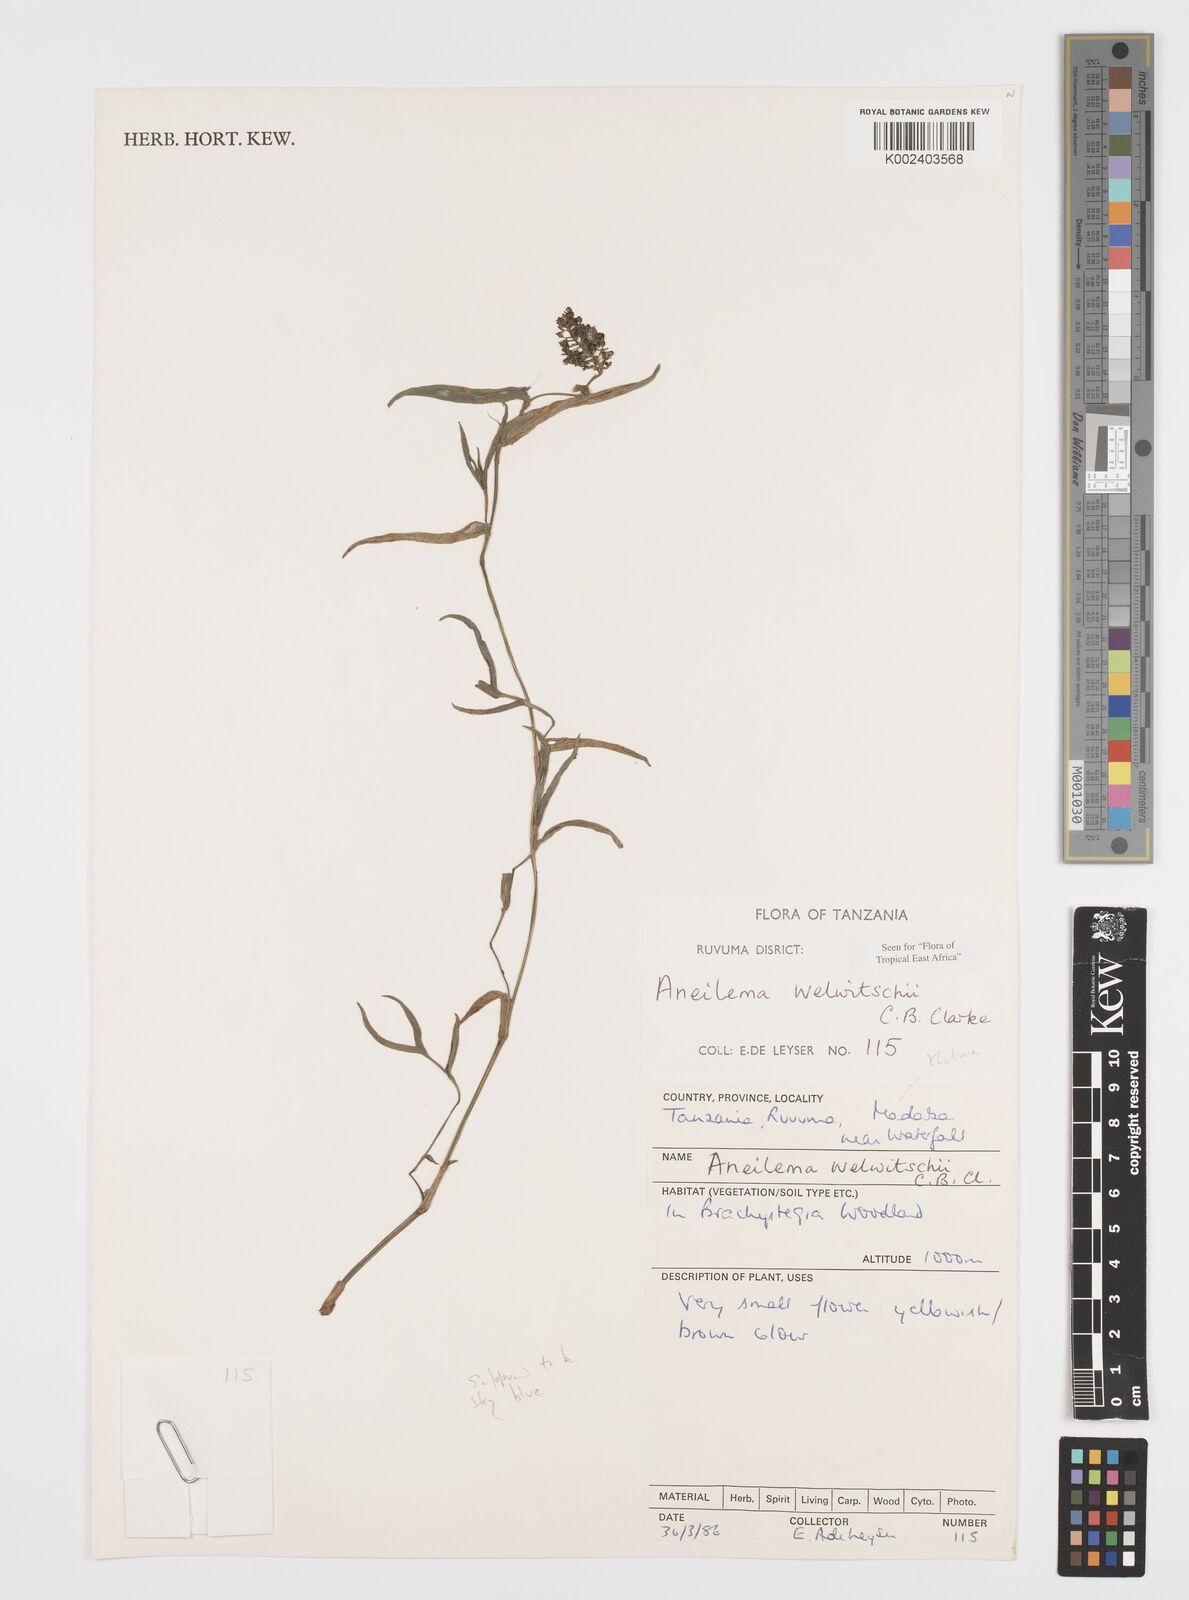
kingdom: Plantae
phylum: Tracheophyta
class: Liliopsida
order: Commelinales
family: Commelinaceae
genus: Aneilema
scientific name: Aneilema welwitschii
